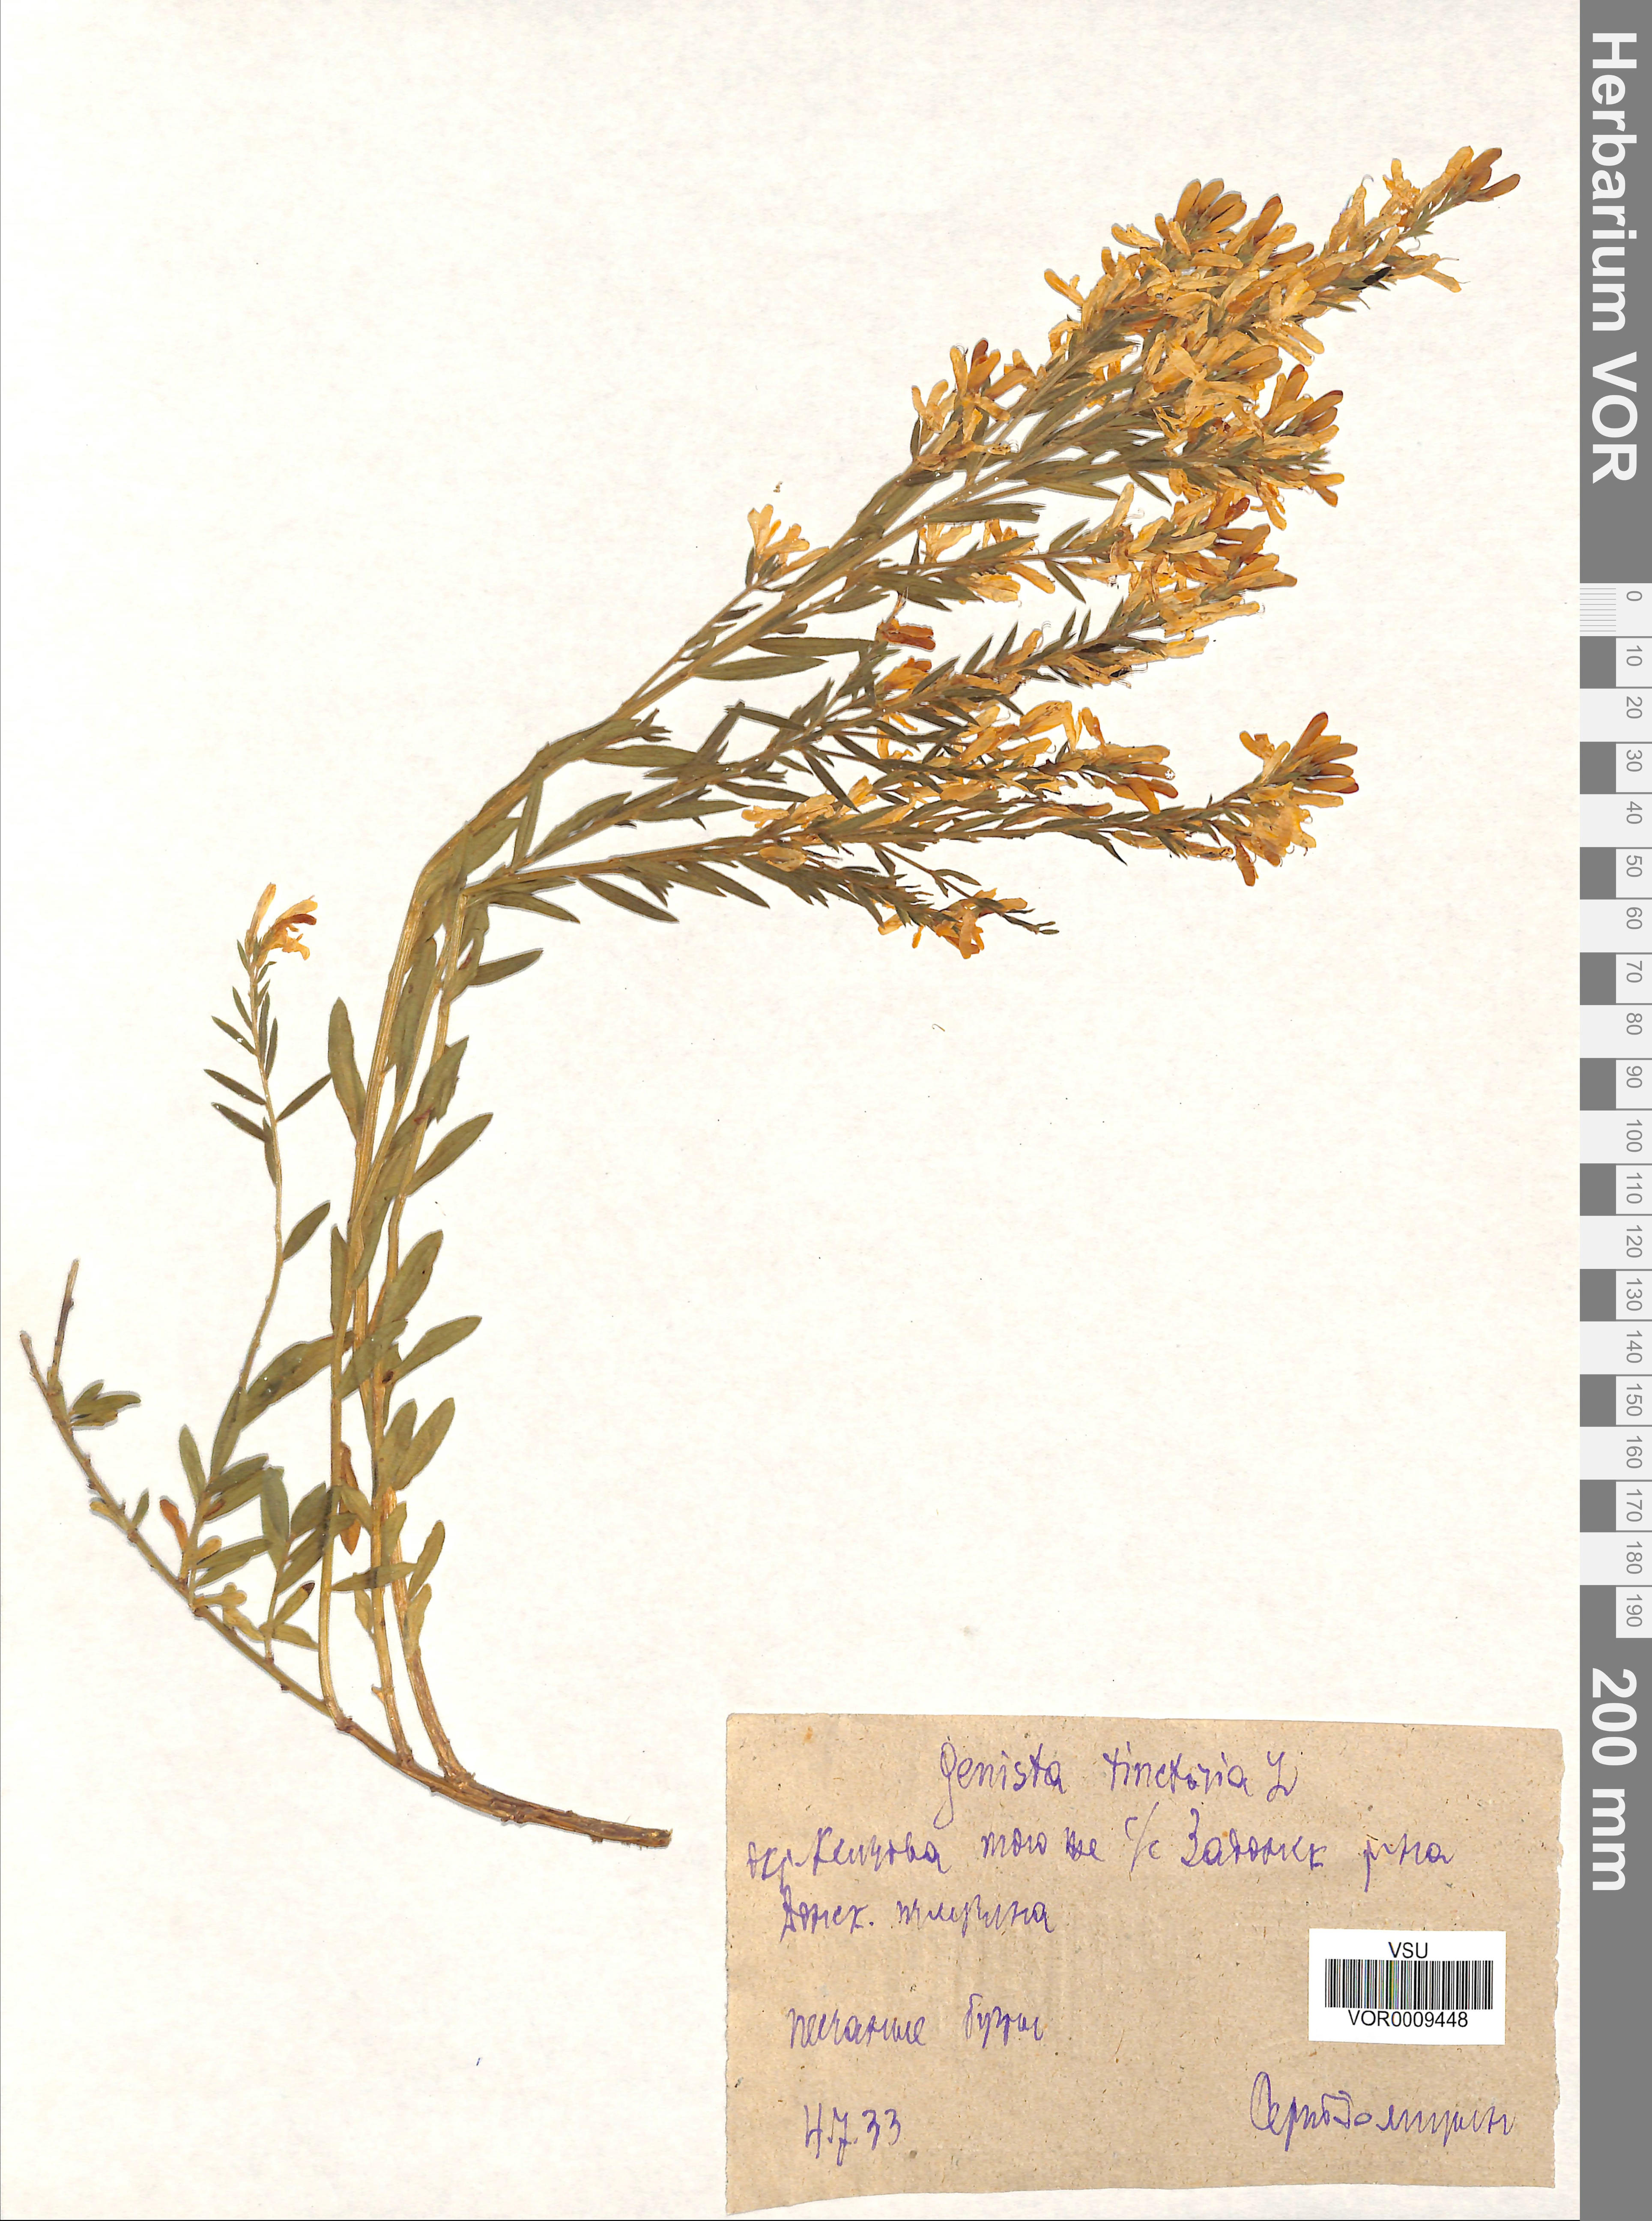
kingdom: Plantae
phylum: Tracheophyta
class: Magnoliopsida
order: Fabales
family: Fabaceae
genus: Genista
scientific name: Genista tinctoria
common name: Dyer's greenweed
